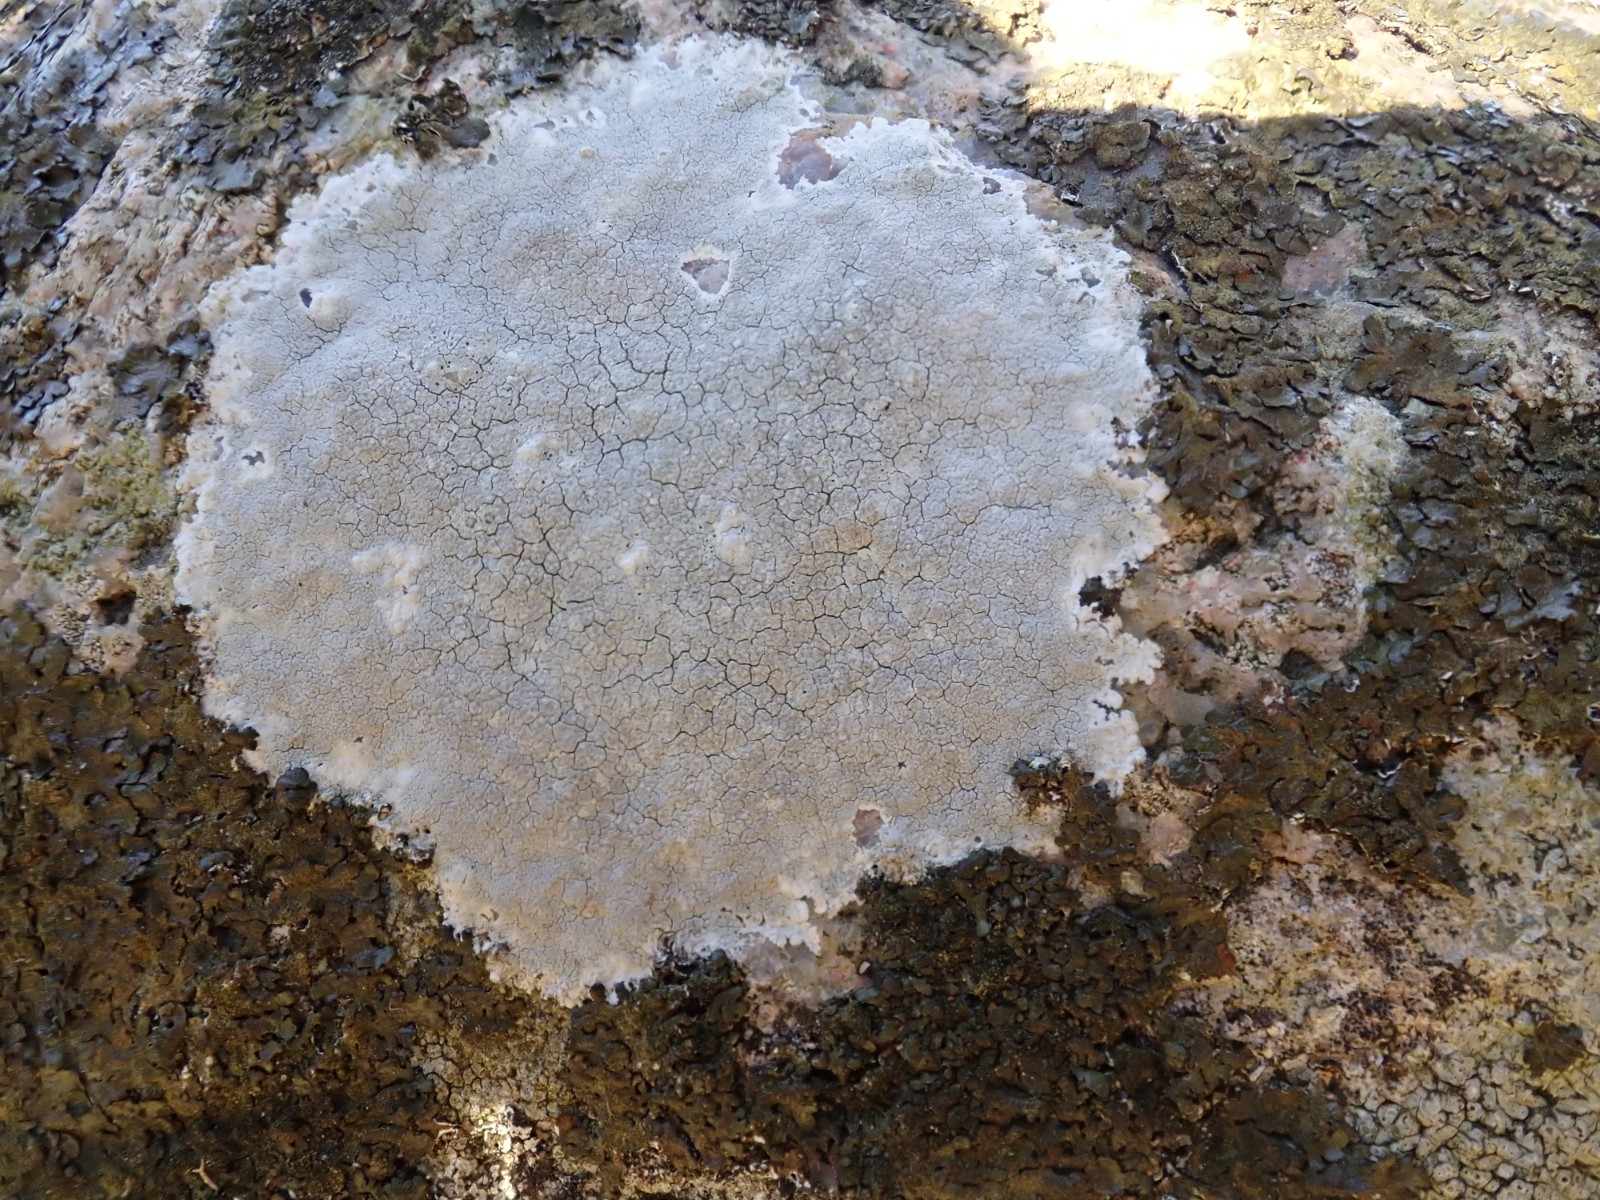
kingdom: Fungi
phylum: Ascomycota
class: Lecanoromycetes
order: Lecanorales
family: Lecanoraceae
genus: Glaucomaria
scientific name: Glaucomaria rupicola
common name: stengærde-kantskivelav
